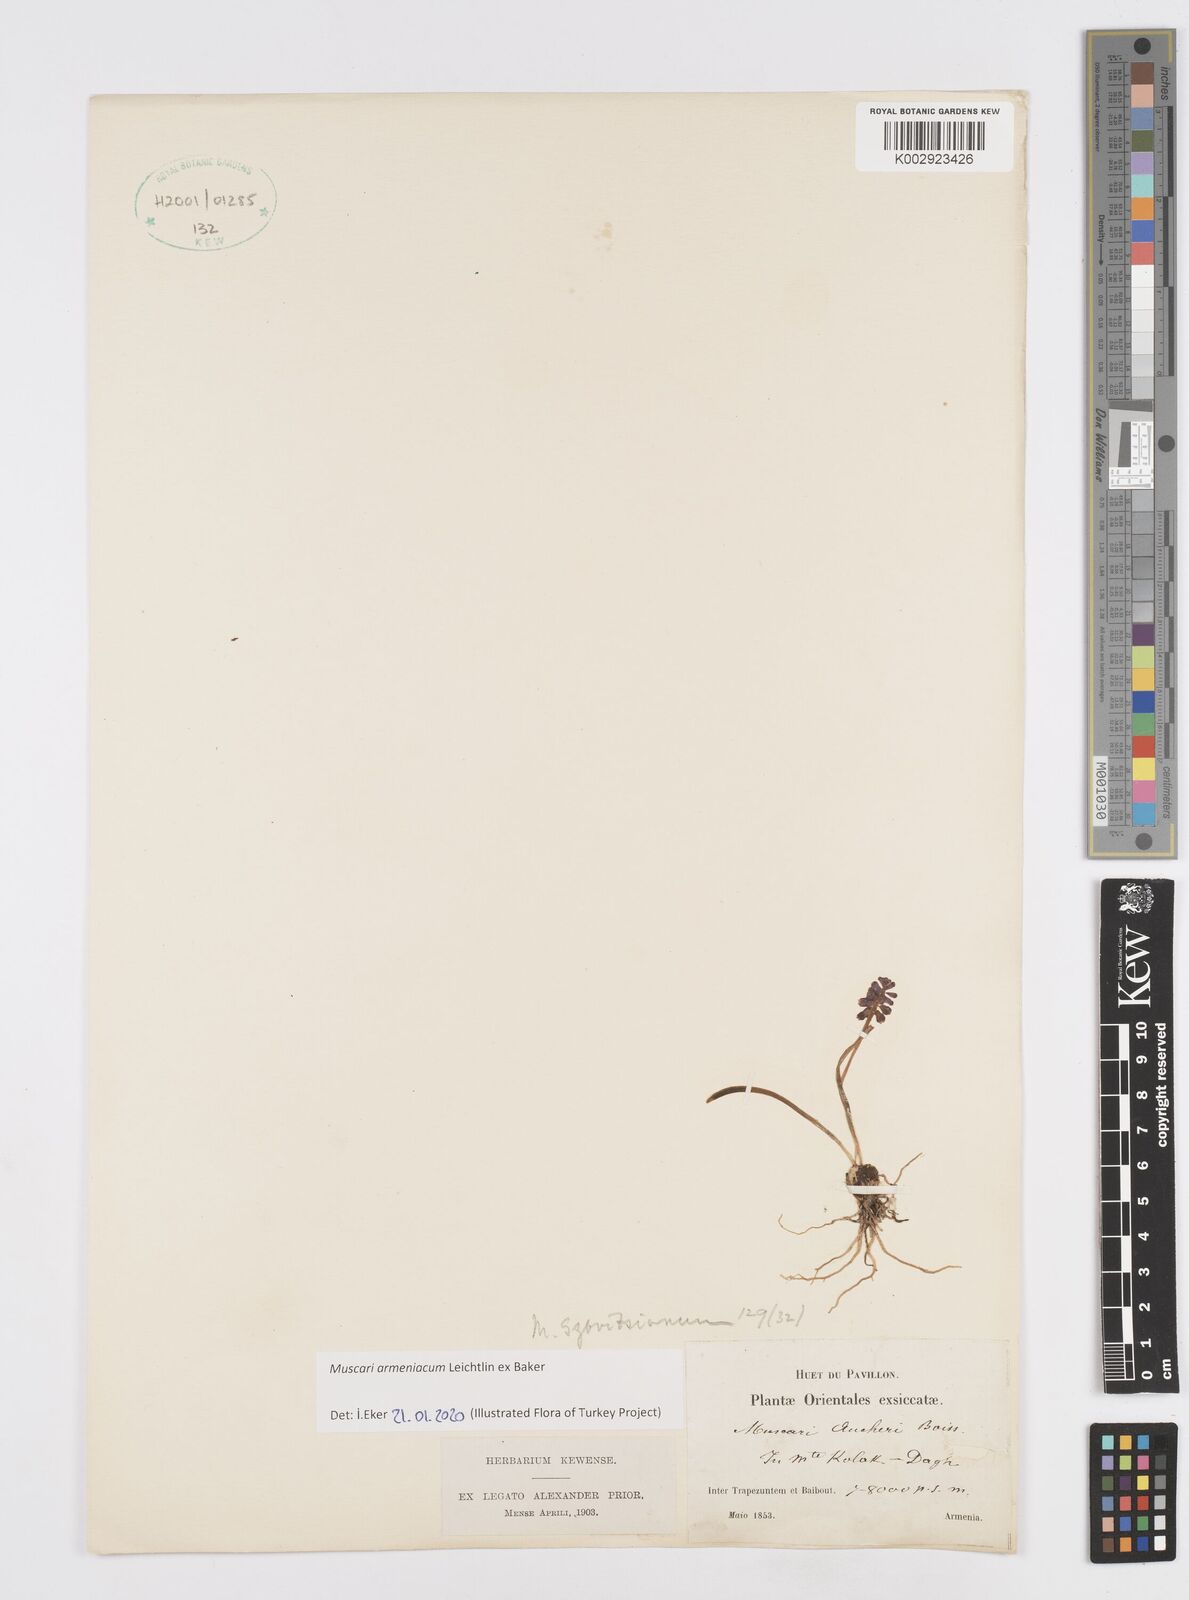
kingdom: Plantae
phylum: Tracheophyta
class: Liliopsida
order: Asparagales
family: Asparagaceae
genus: Muscari
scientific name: Muscari neglectum
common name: Grape-hyacinth
